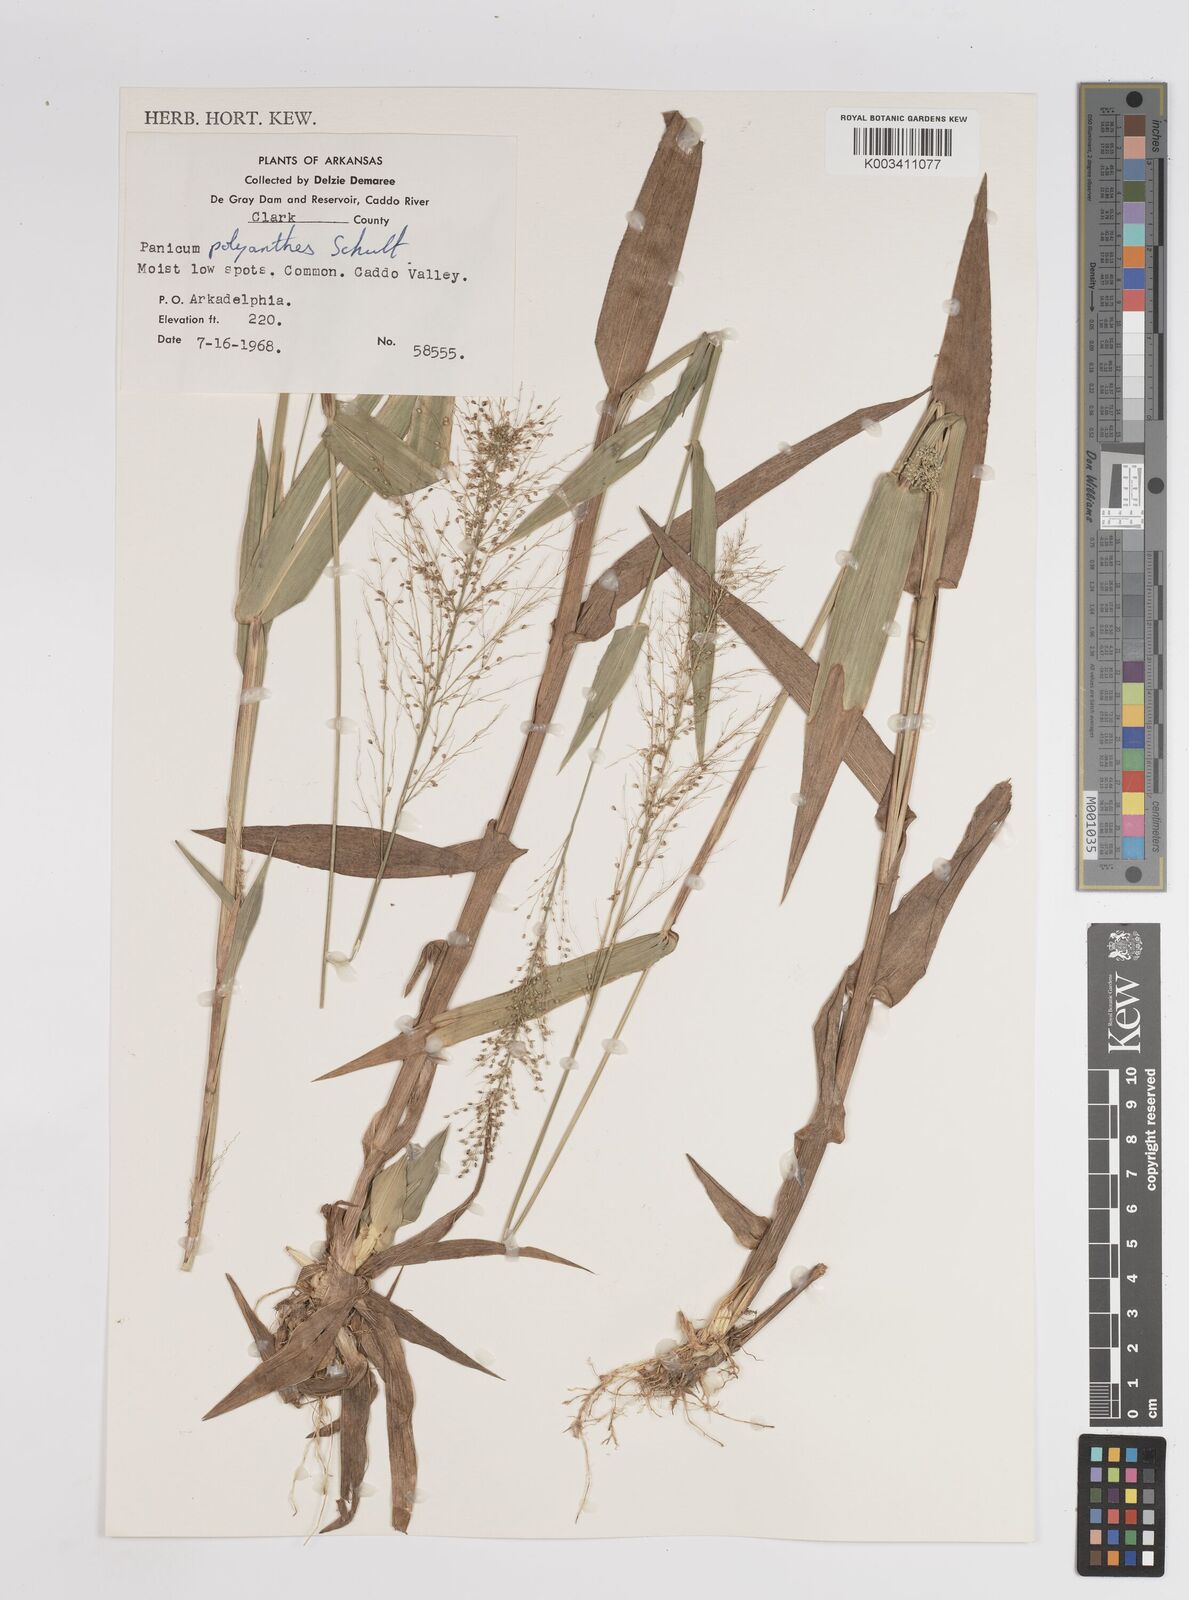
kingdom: Plantae
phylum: Tracheophyta
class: Liliopsida
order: Poales
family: Poaceae
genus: Dichanthelium
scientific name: Dichanthelium polyanthes
